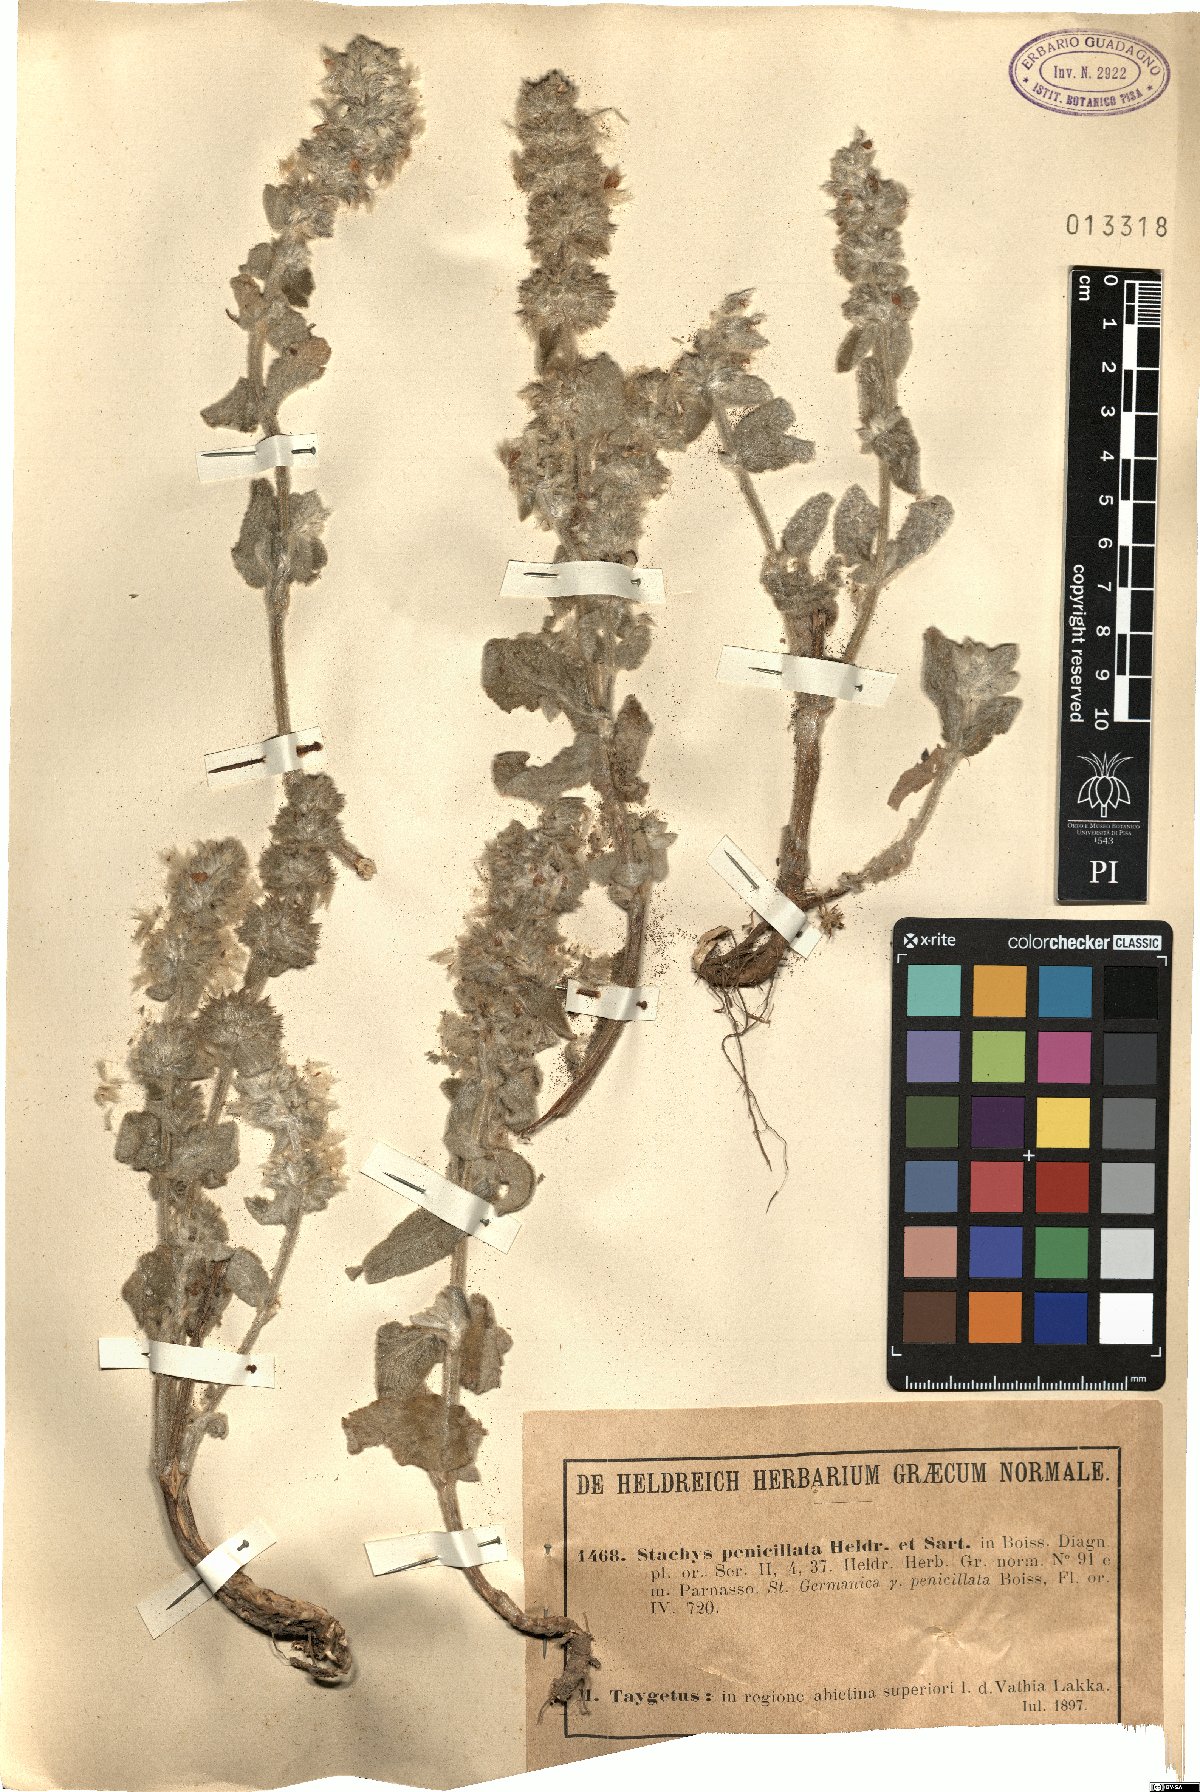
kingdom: Plantae
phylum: Tracheophyta
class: Magnoliopsida
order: Lamiales
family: Lamiaceae
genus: Stachys
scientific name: Stachys germanica
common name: Downy woundwort
